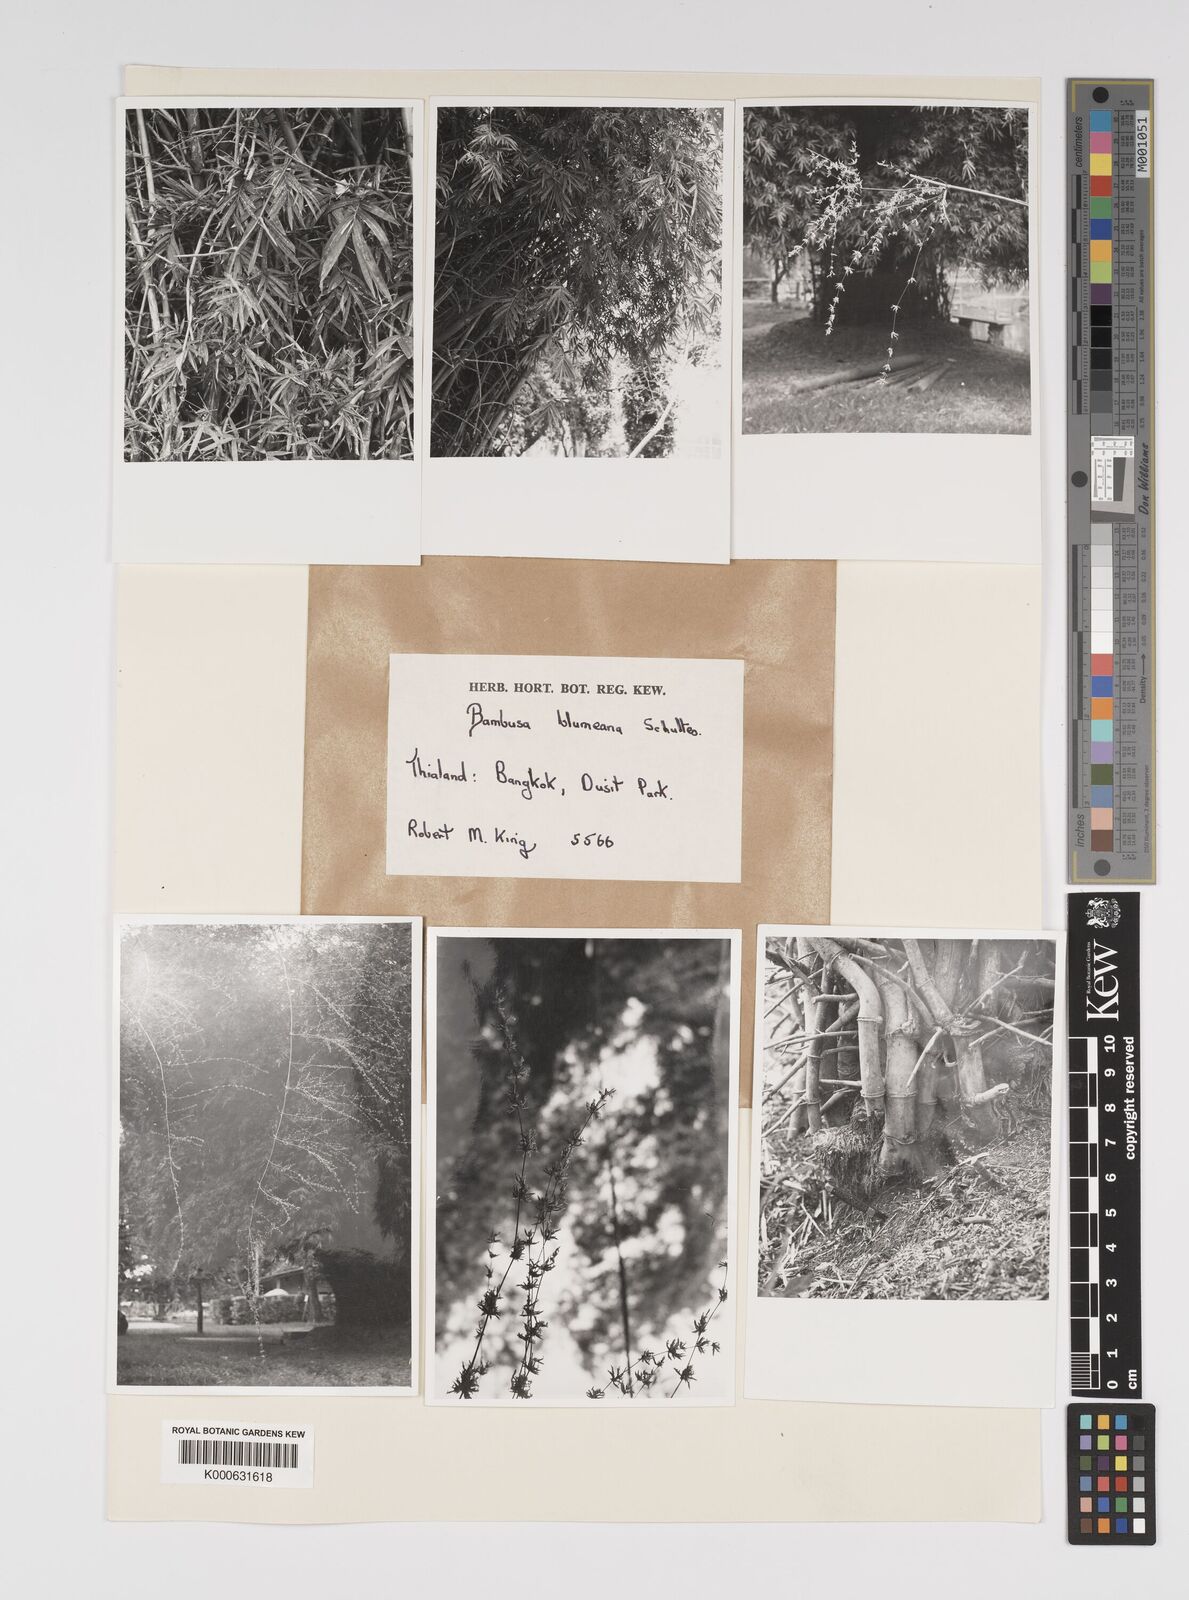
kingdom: Plantae
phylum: Tracheophyta
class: Liliopsida
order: Poales
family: Poaceae
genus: Bambusa
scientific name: Bambusa spinosa
